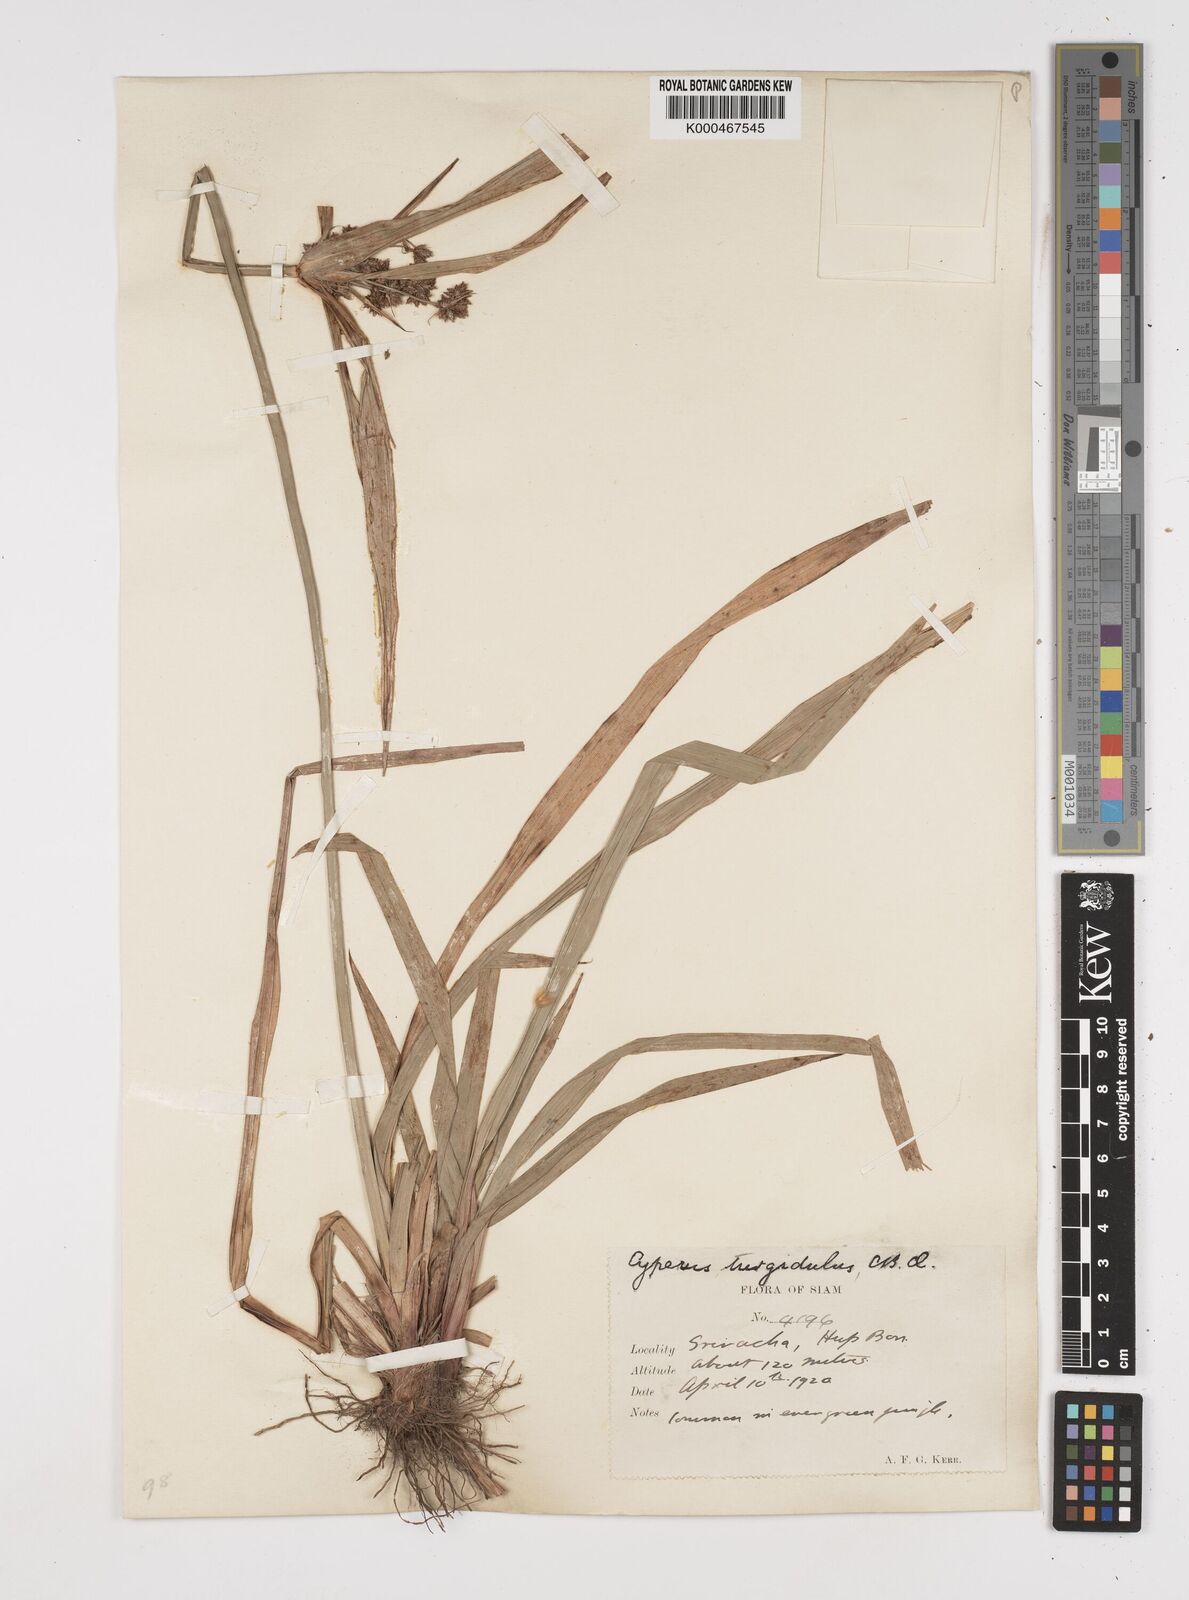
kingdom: Plantae
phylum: Tracheophyta
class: Liliopsida
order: Poales
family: Cyperaceae
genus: Cyperus
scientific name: Cyperus trialatus
